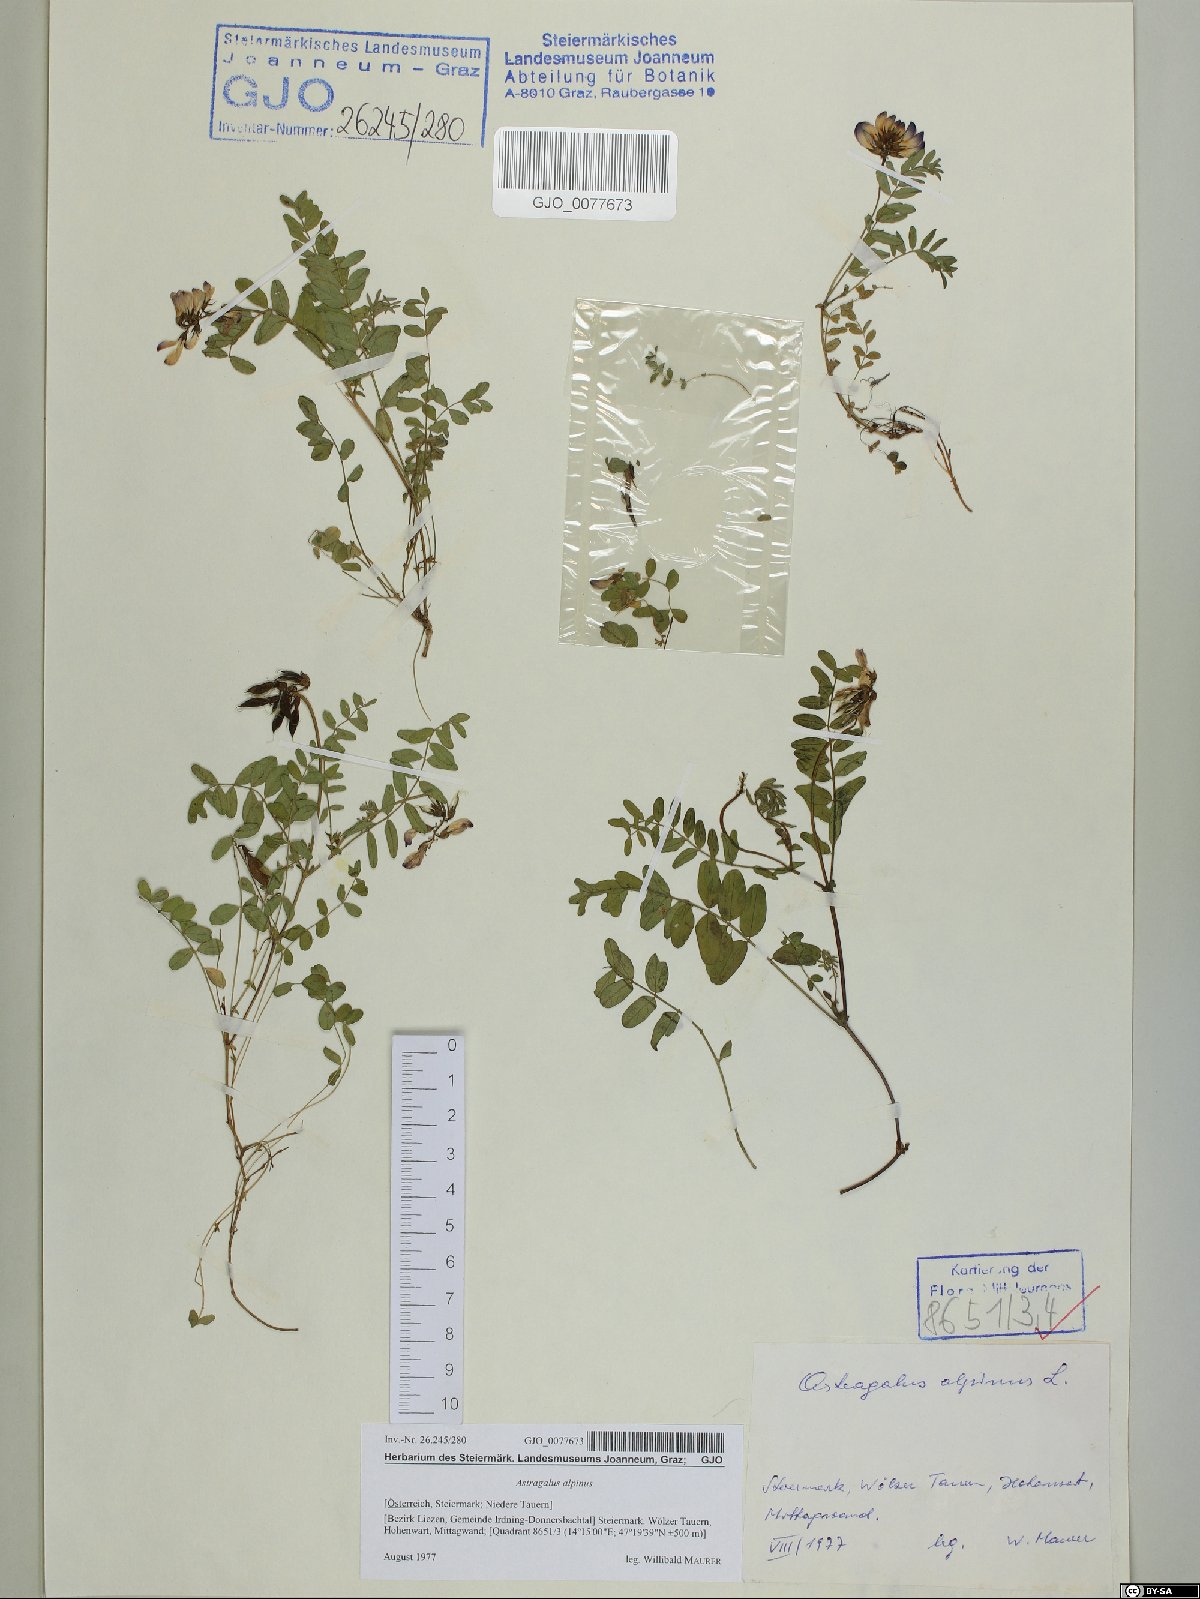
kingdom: Plantae
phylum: Tracheophyta
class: Magnoliopsida
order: Fabales
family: Fabaceae
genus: Astragalus
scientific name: Astragalus alpinus
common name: Alpine milk-vetch
